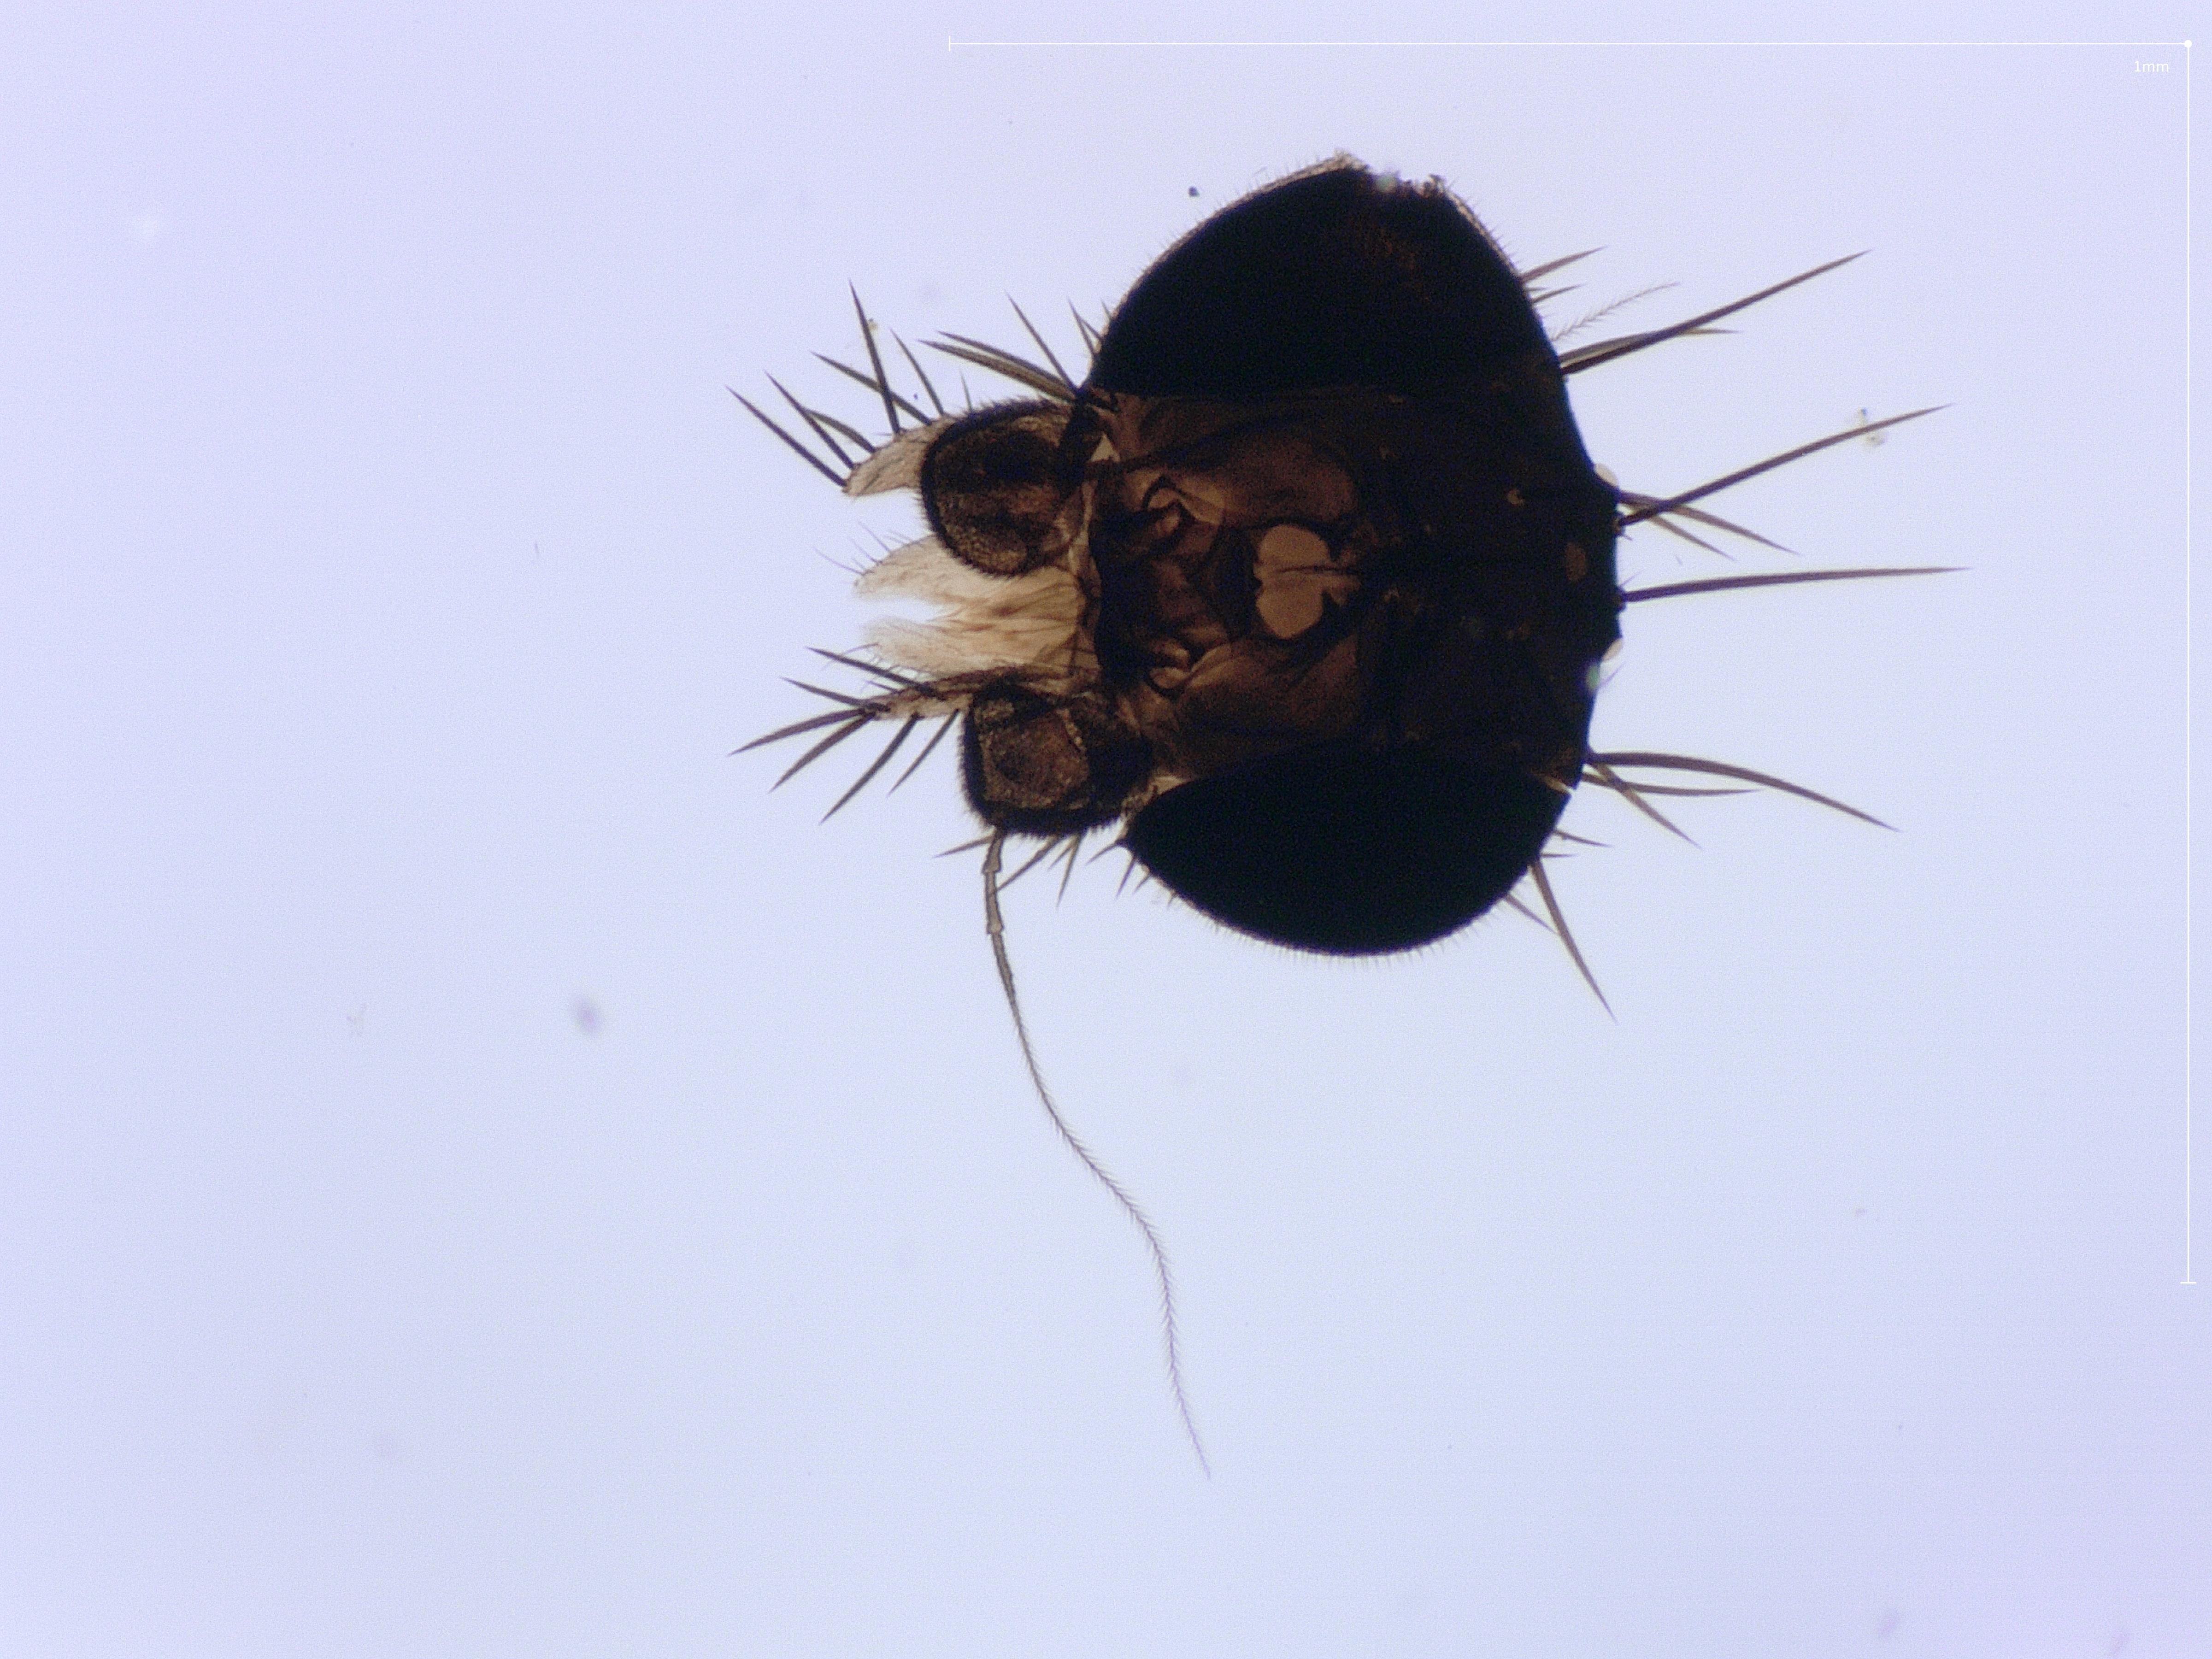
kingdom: Animalia
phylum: Arthropoda
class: Insecta
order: Diptera
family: Phoridae
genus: Megaselia
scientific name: Megaselia tenebricola
